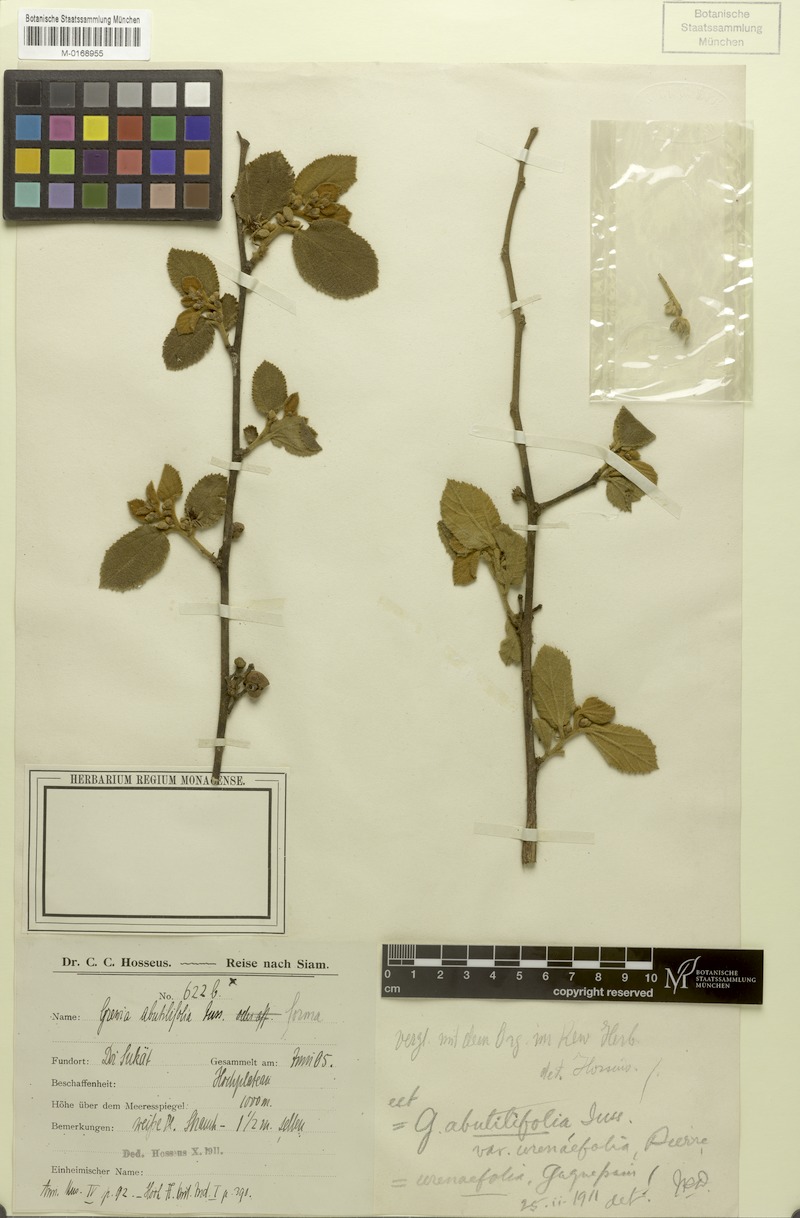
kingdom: Plantae
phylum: Tracheophyta
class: Magnoliopsida
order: Malvales
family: Malvaceae
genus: Grewia
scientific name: Grewia urenifolia
